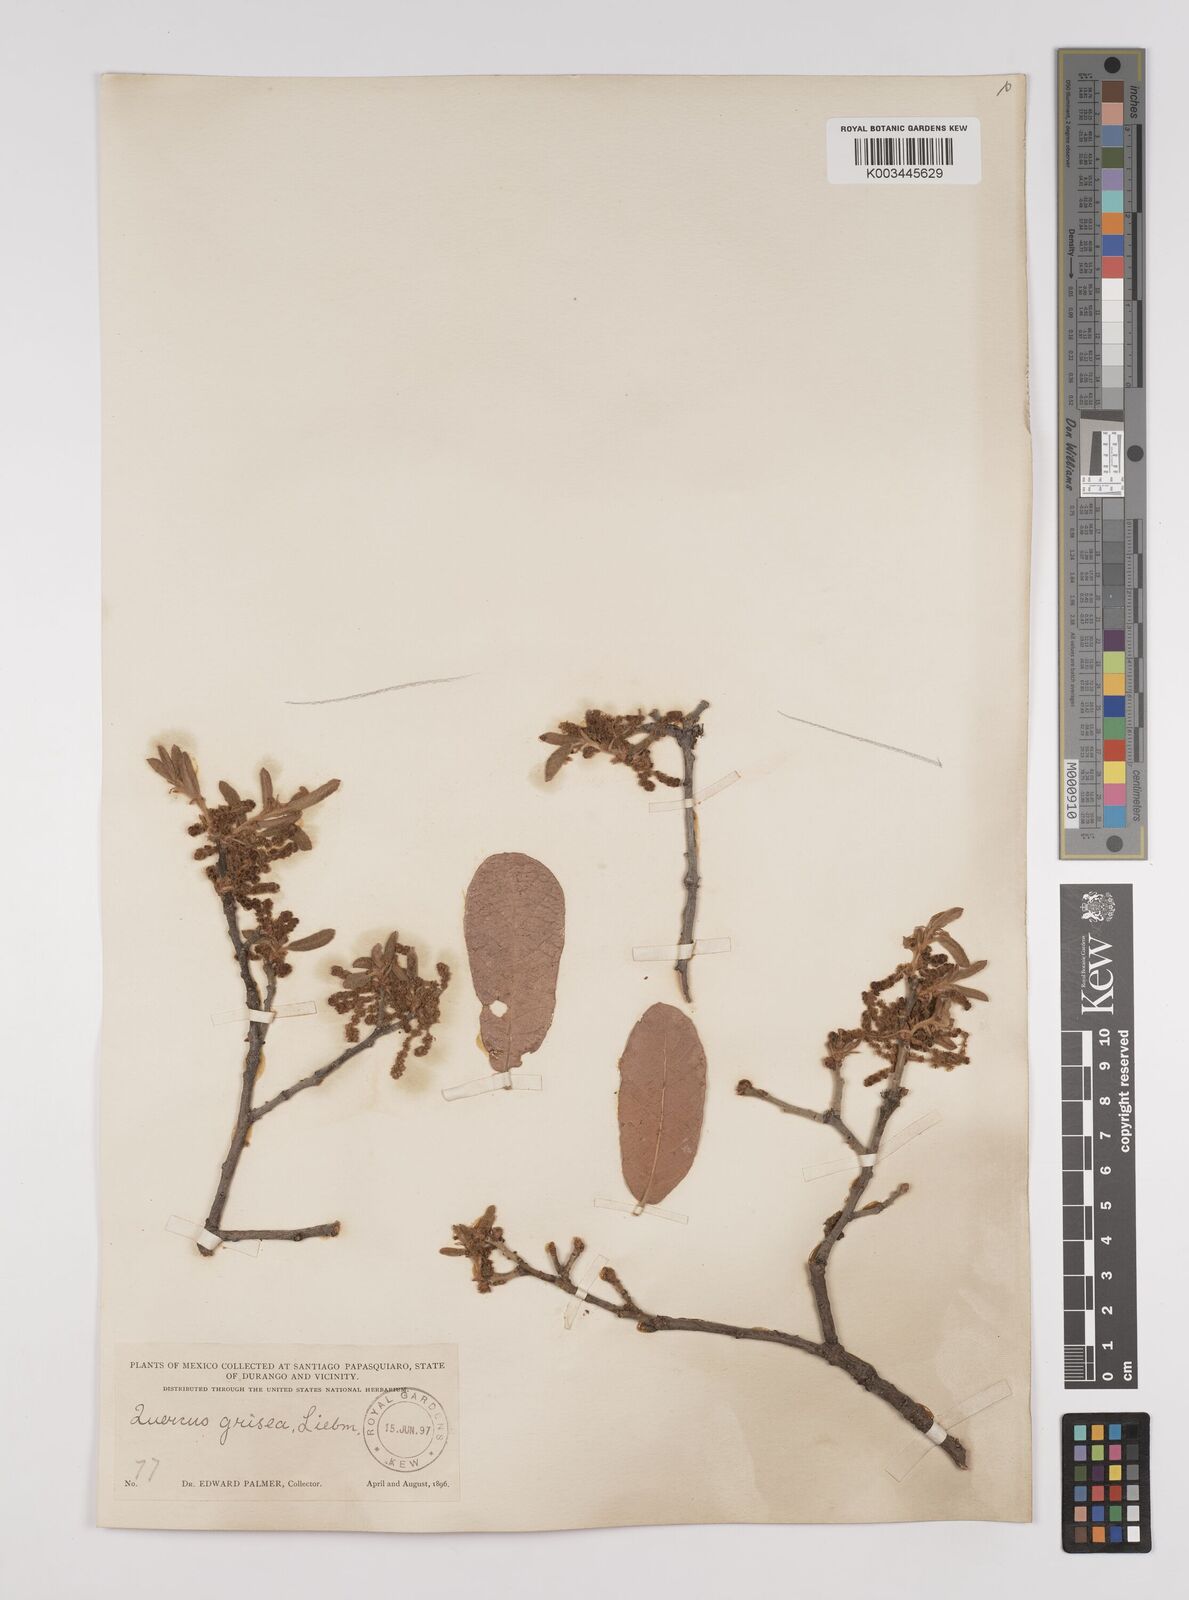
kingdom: Plantae
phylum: Tracheophyta
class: Magnoliopsida
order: Fagales
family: Fagaceae
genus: Quercus
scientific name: Quercus arizonica
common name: Arizona white oak
